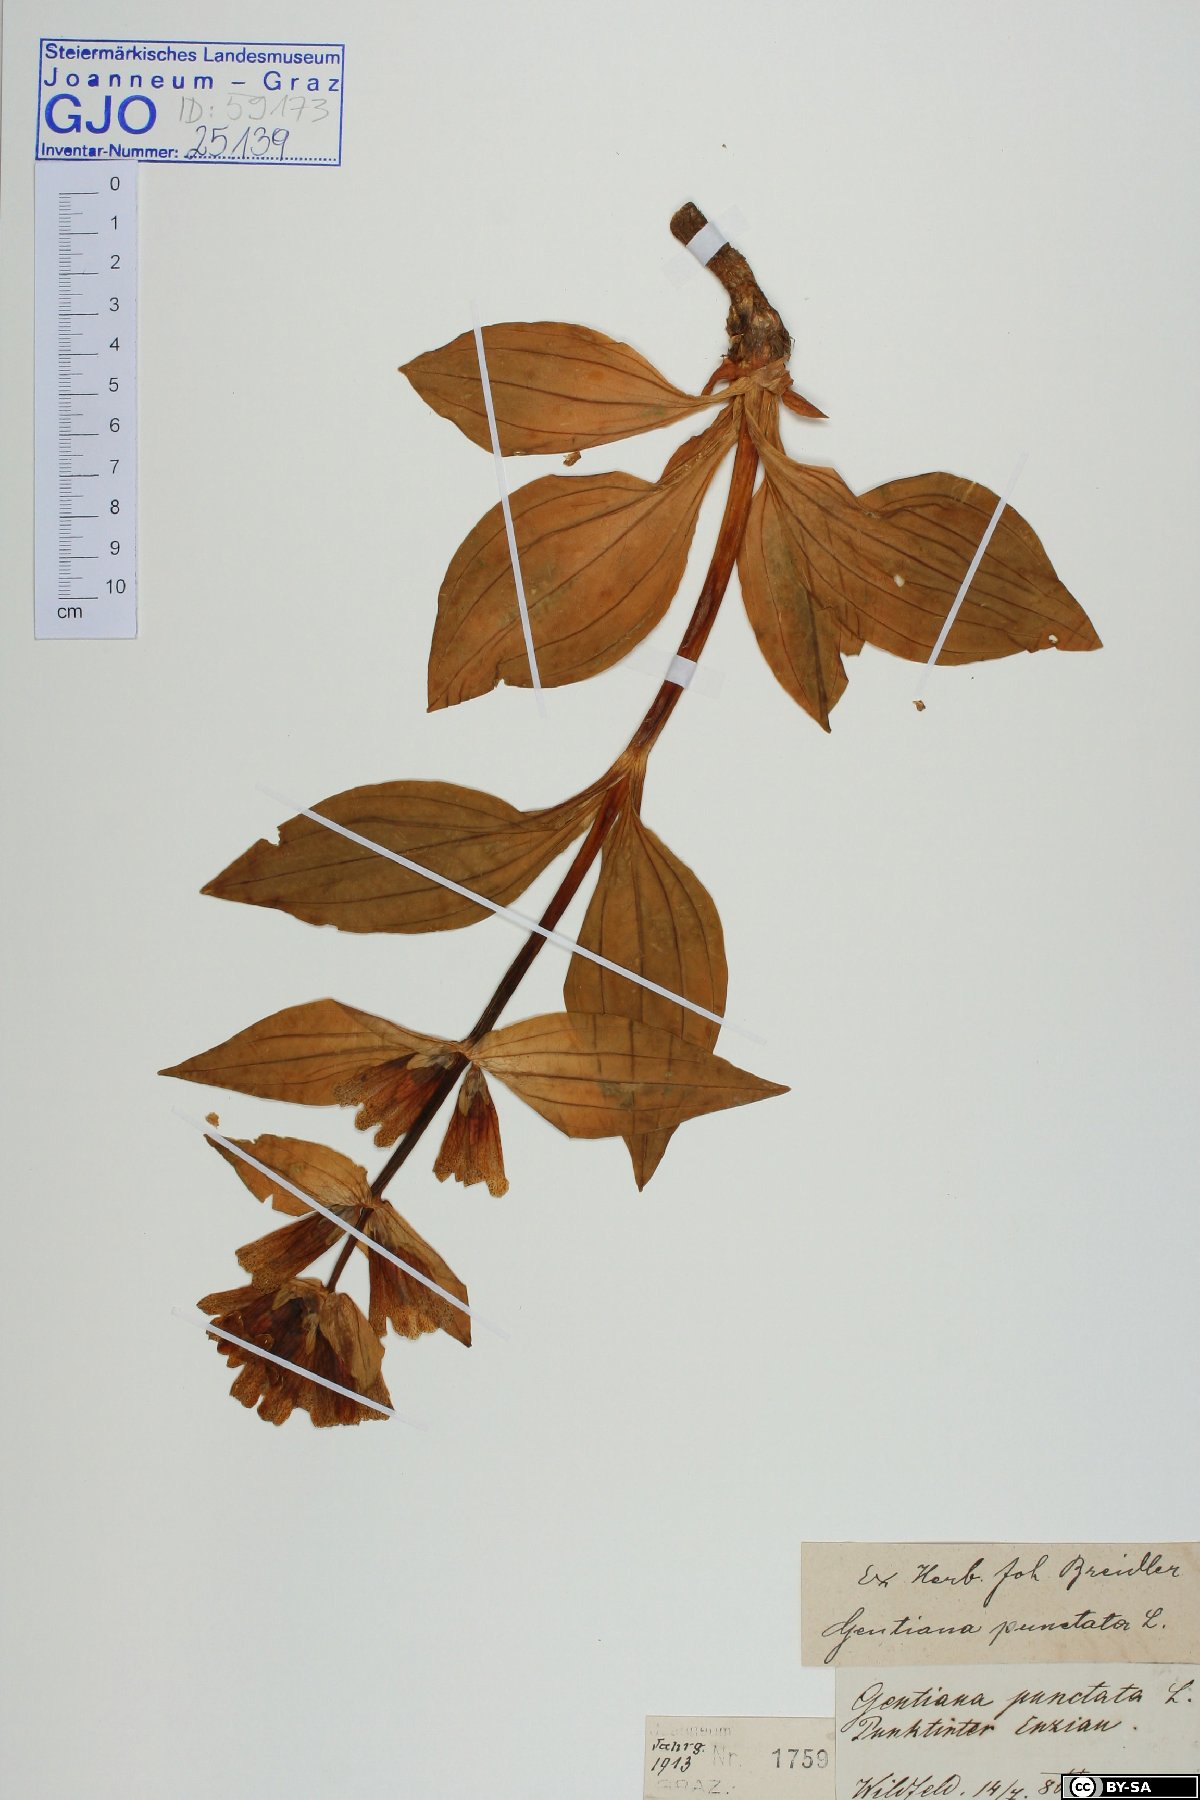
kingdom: Plantae
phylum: Tracheophyta
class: Magnoliopsida
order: Gentianales
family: Gentianaceae
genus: Gentiana
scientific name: Gentiana punctata
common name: Spotted gentian
